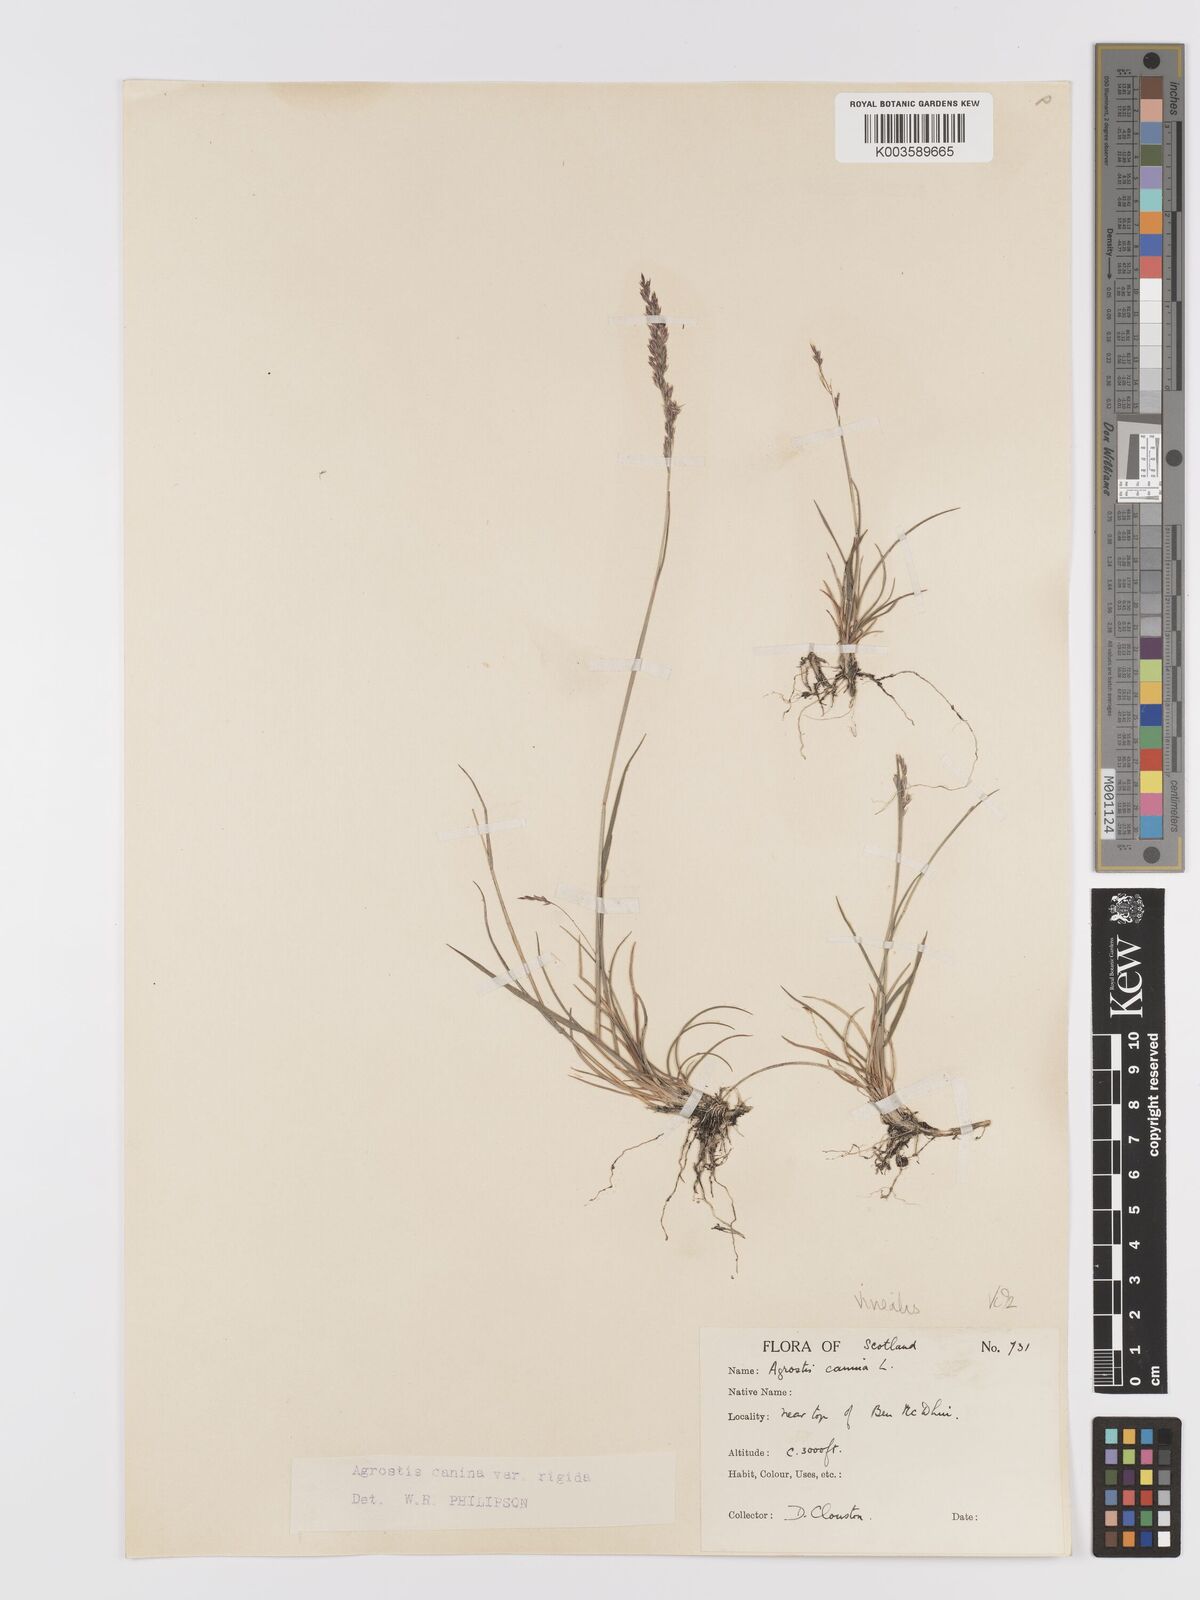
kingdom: Plantae
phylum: Tracheophyta
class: Liliopsida
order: Poales
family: Poaceae
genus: Agrostis
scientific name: Agrostis
